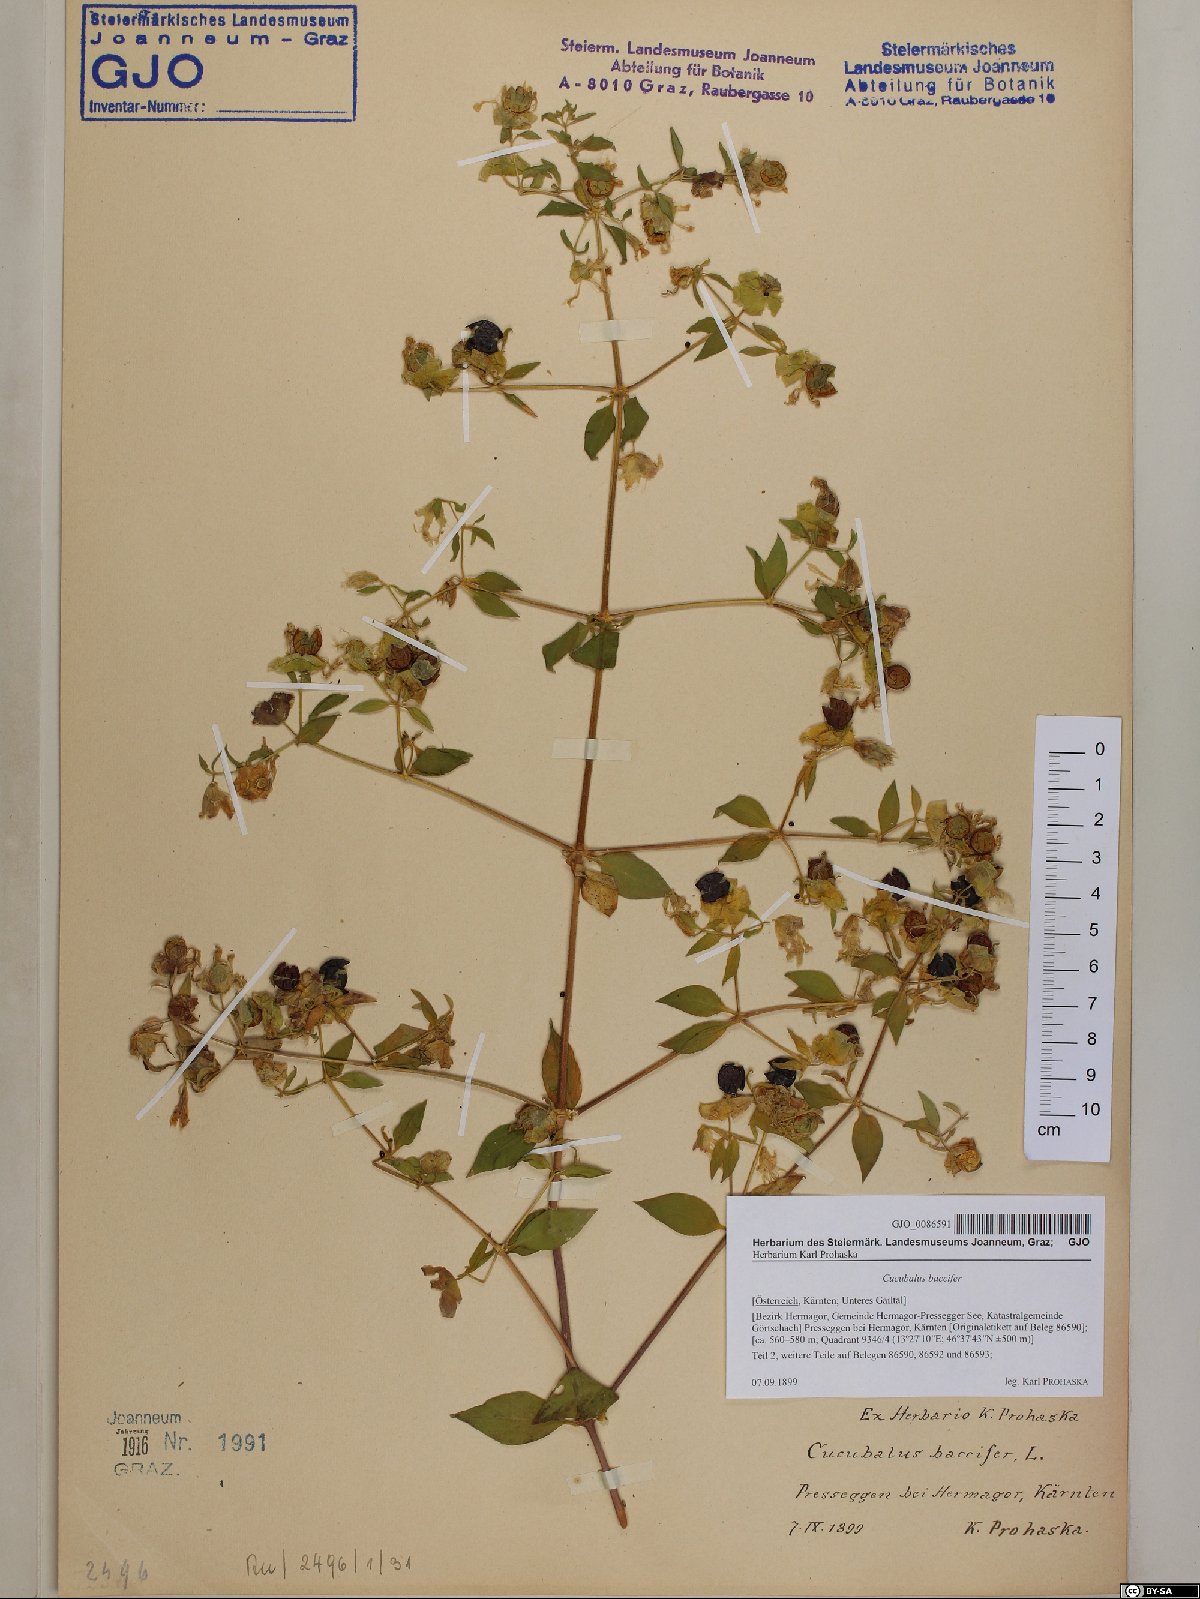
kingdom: Plantae
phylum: Tracheophyta
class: Magnoliopsida
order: Caryophyllales
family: Caryophyllaceae
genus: Silene
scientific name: Silene baccifera
